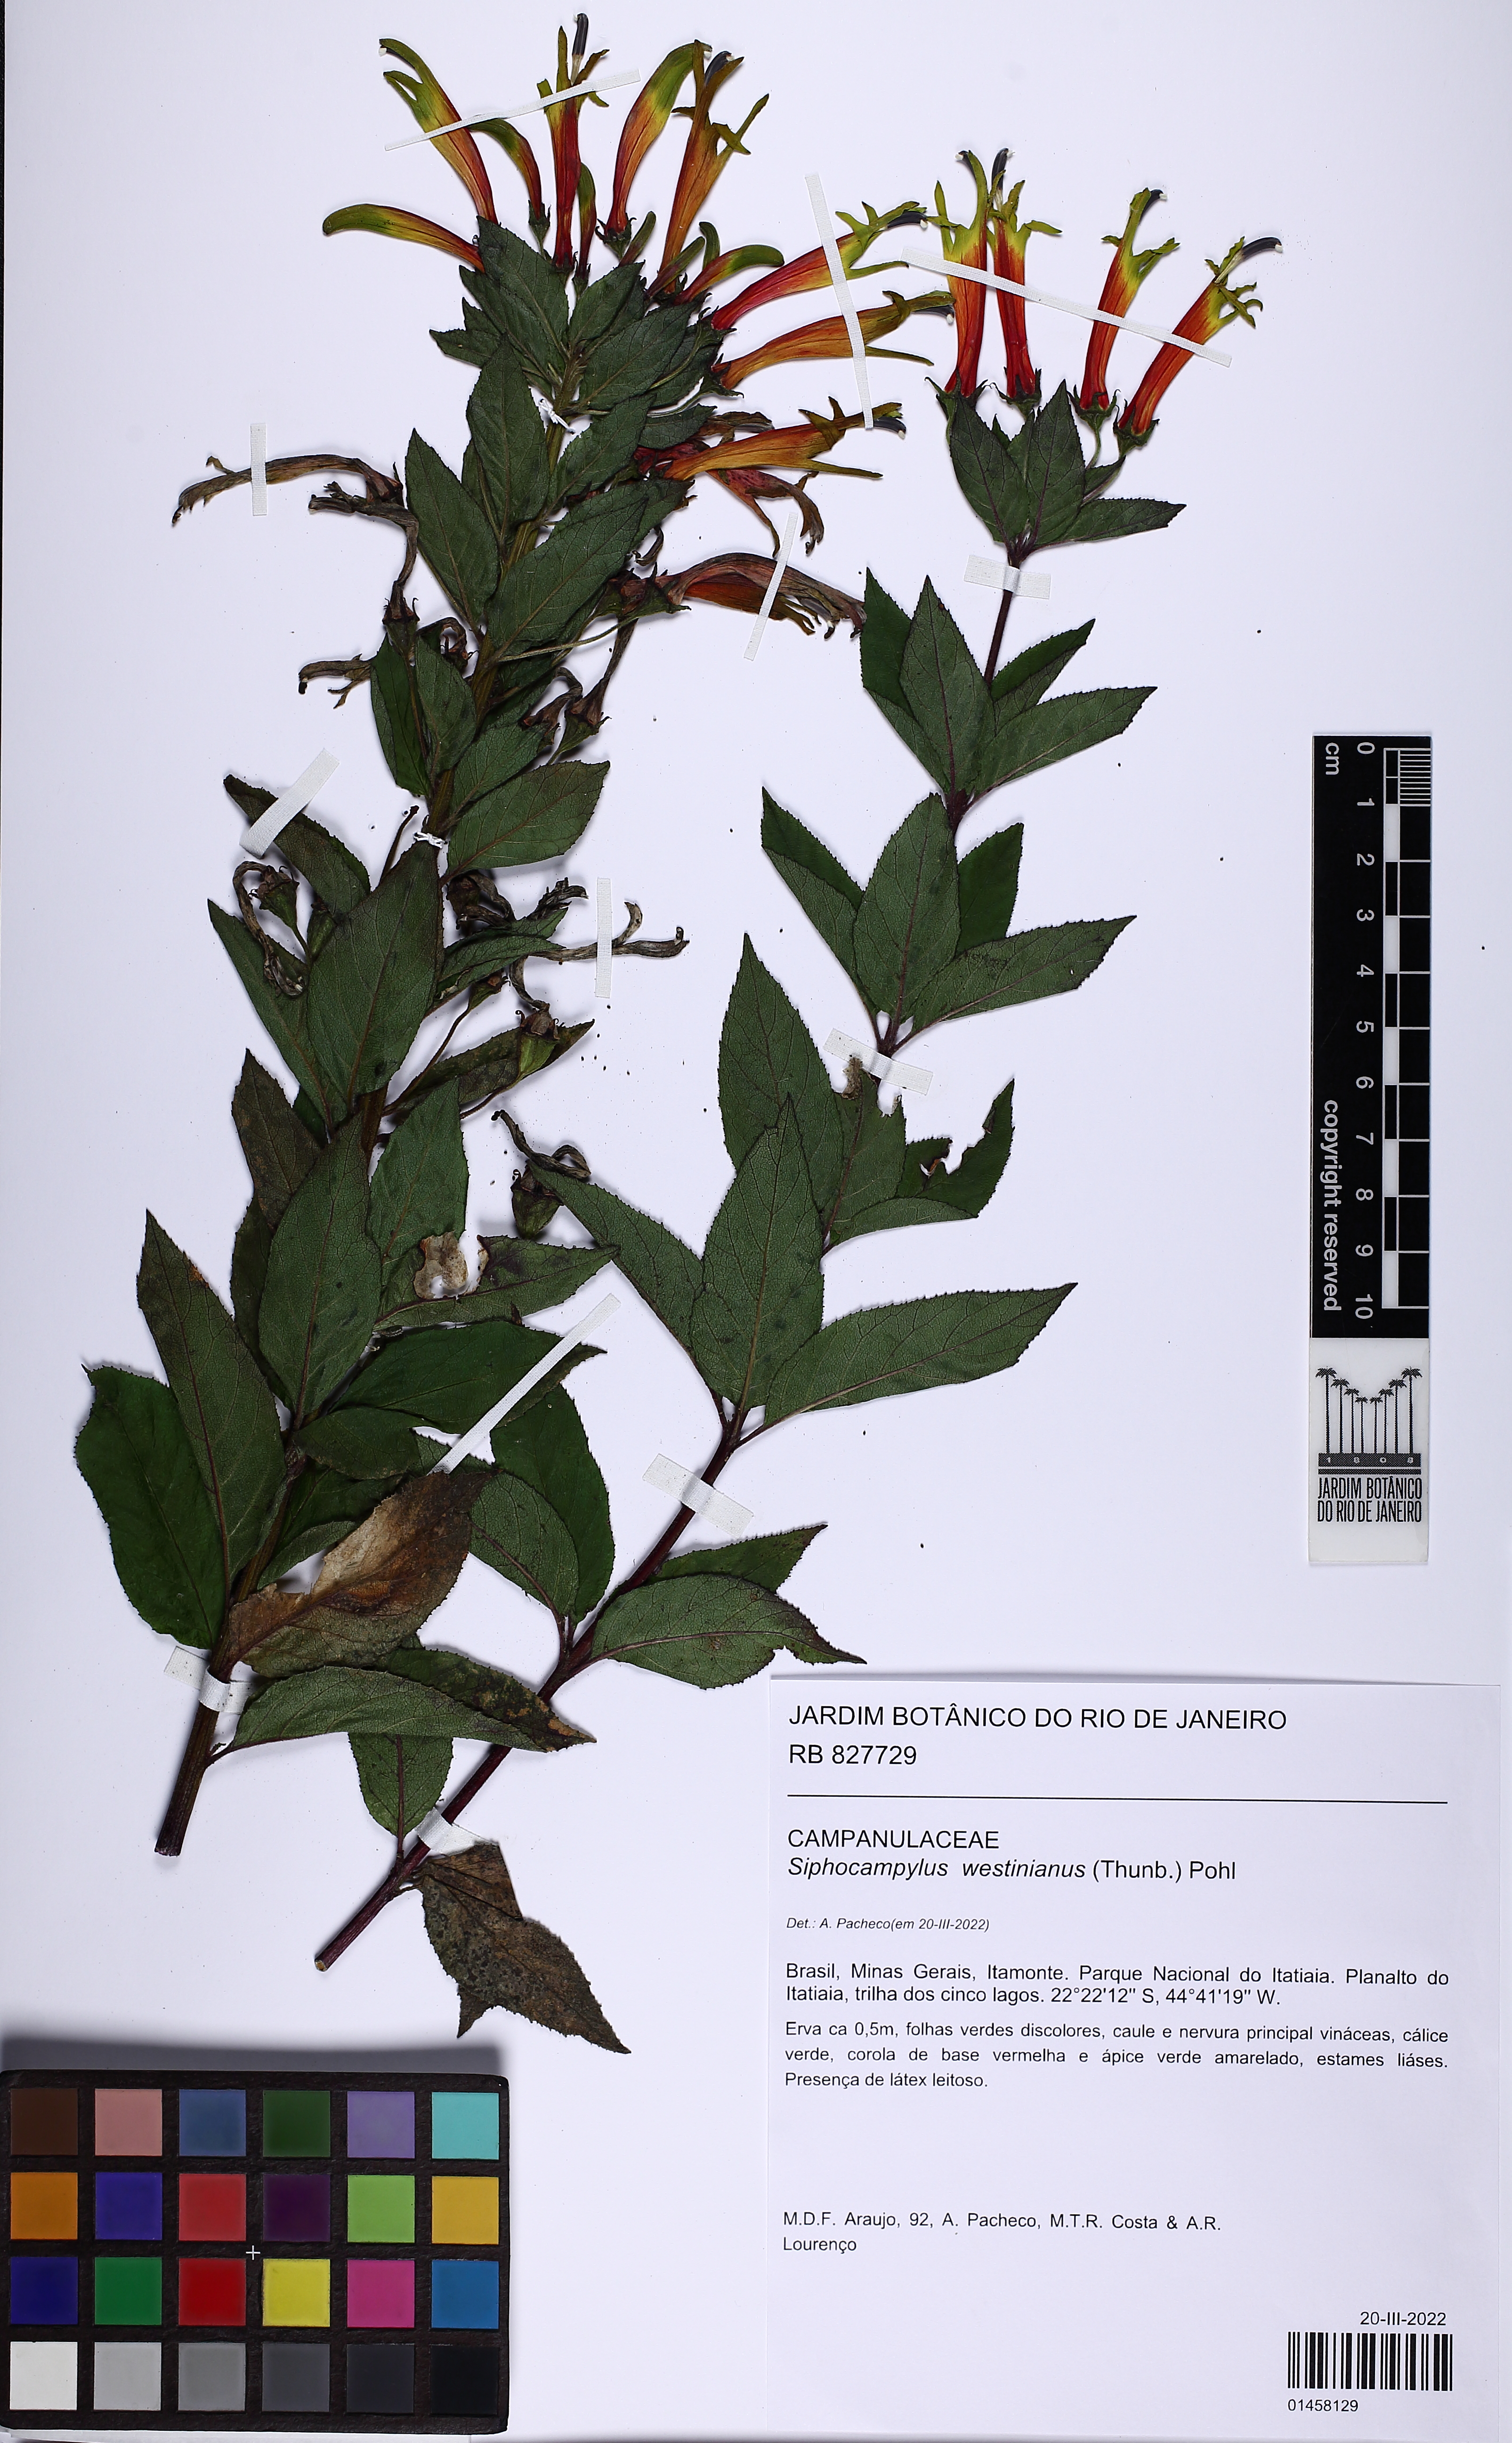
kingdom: Plantae
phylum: Tracheophyta
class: Magnoliopsida
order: Asterales
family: Campanulaceae
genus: Siphocampylus
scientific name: Siphocampylus westinianus
